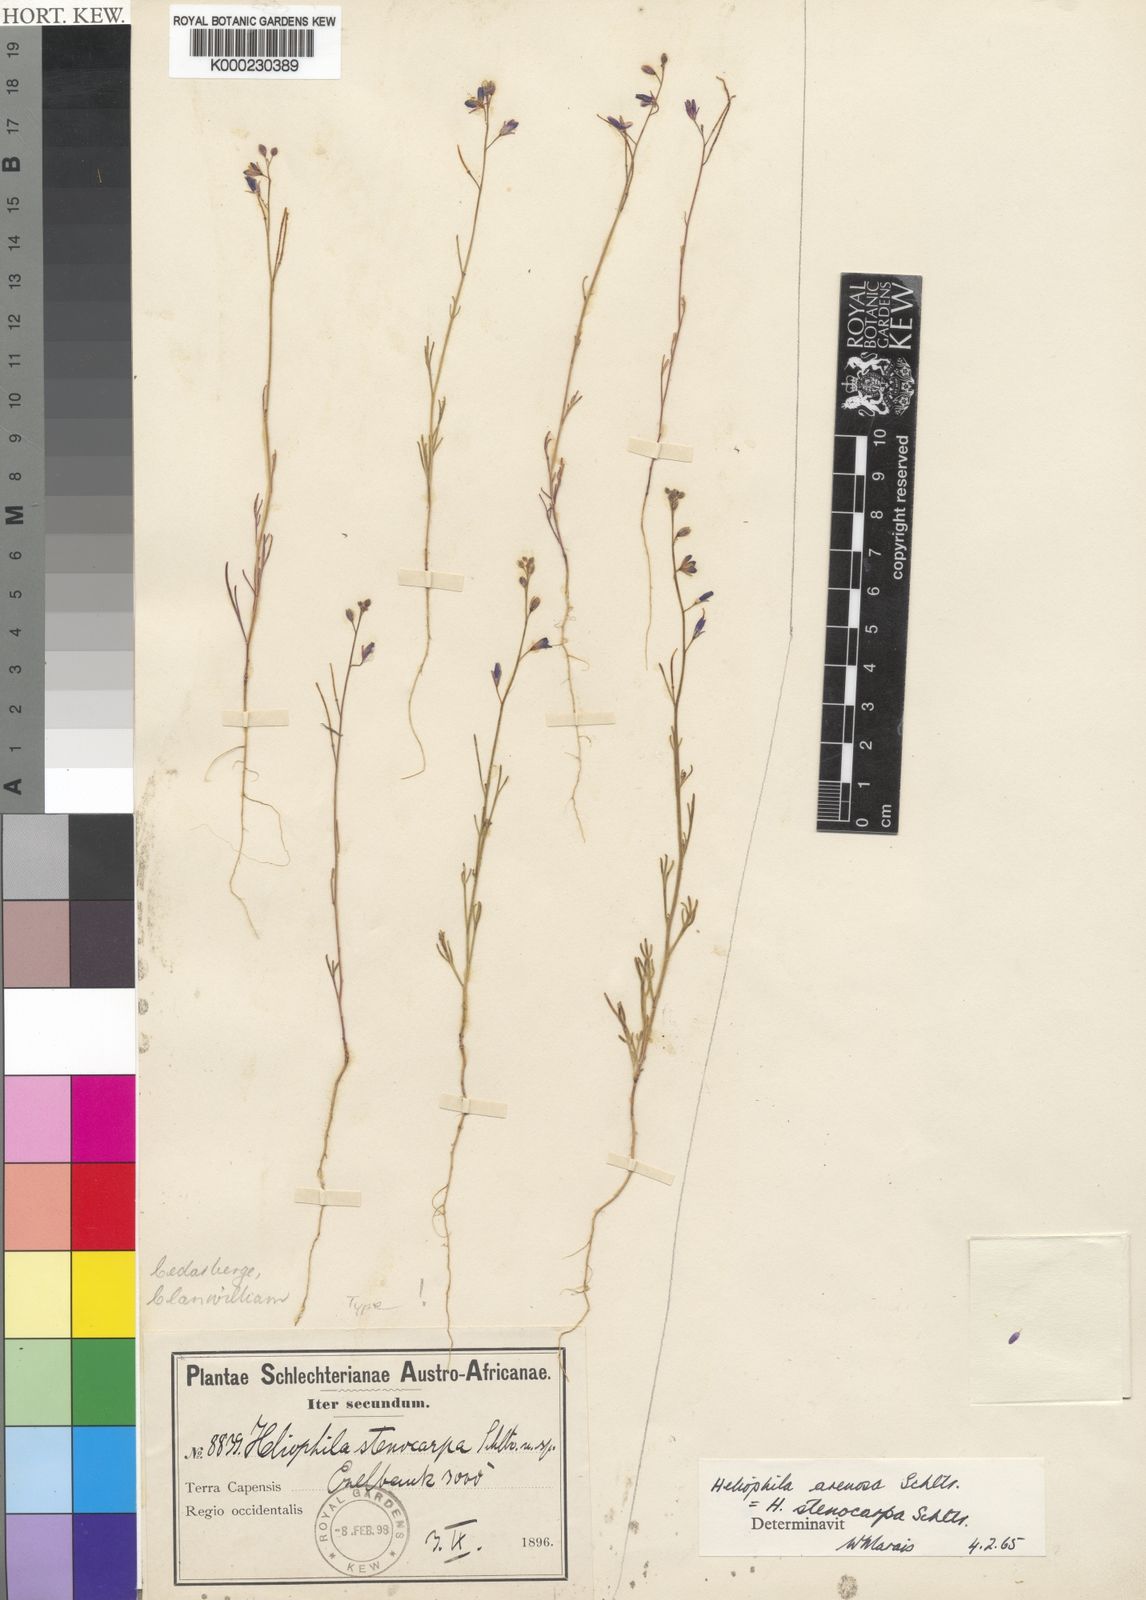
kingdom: Plantae
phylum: Tracheophyta
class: Magnoliopsida
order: Brassicales
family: Brassicaceae
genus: Heliophila
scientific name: Heliophila arenosa
